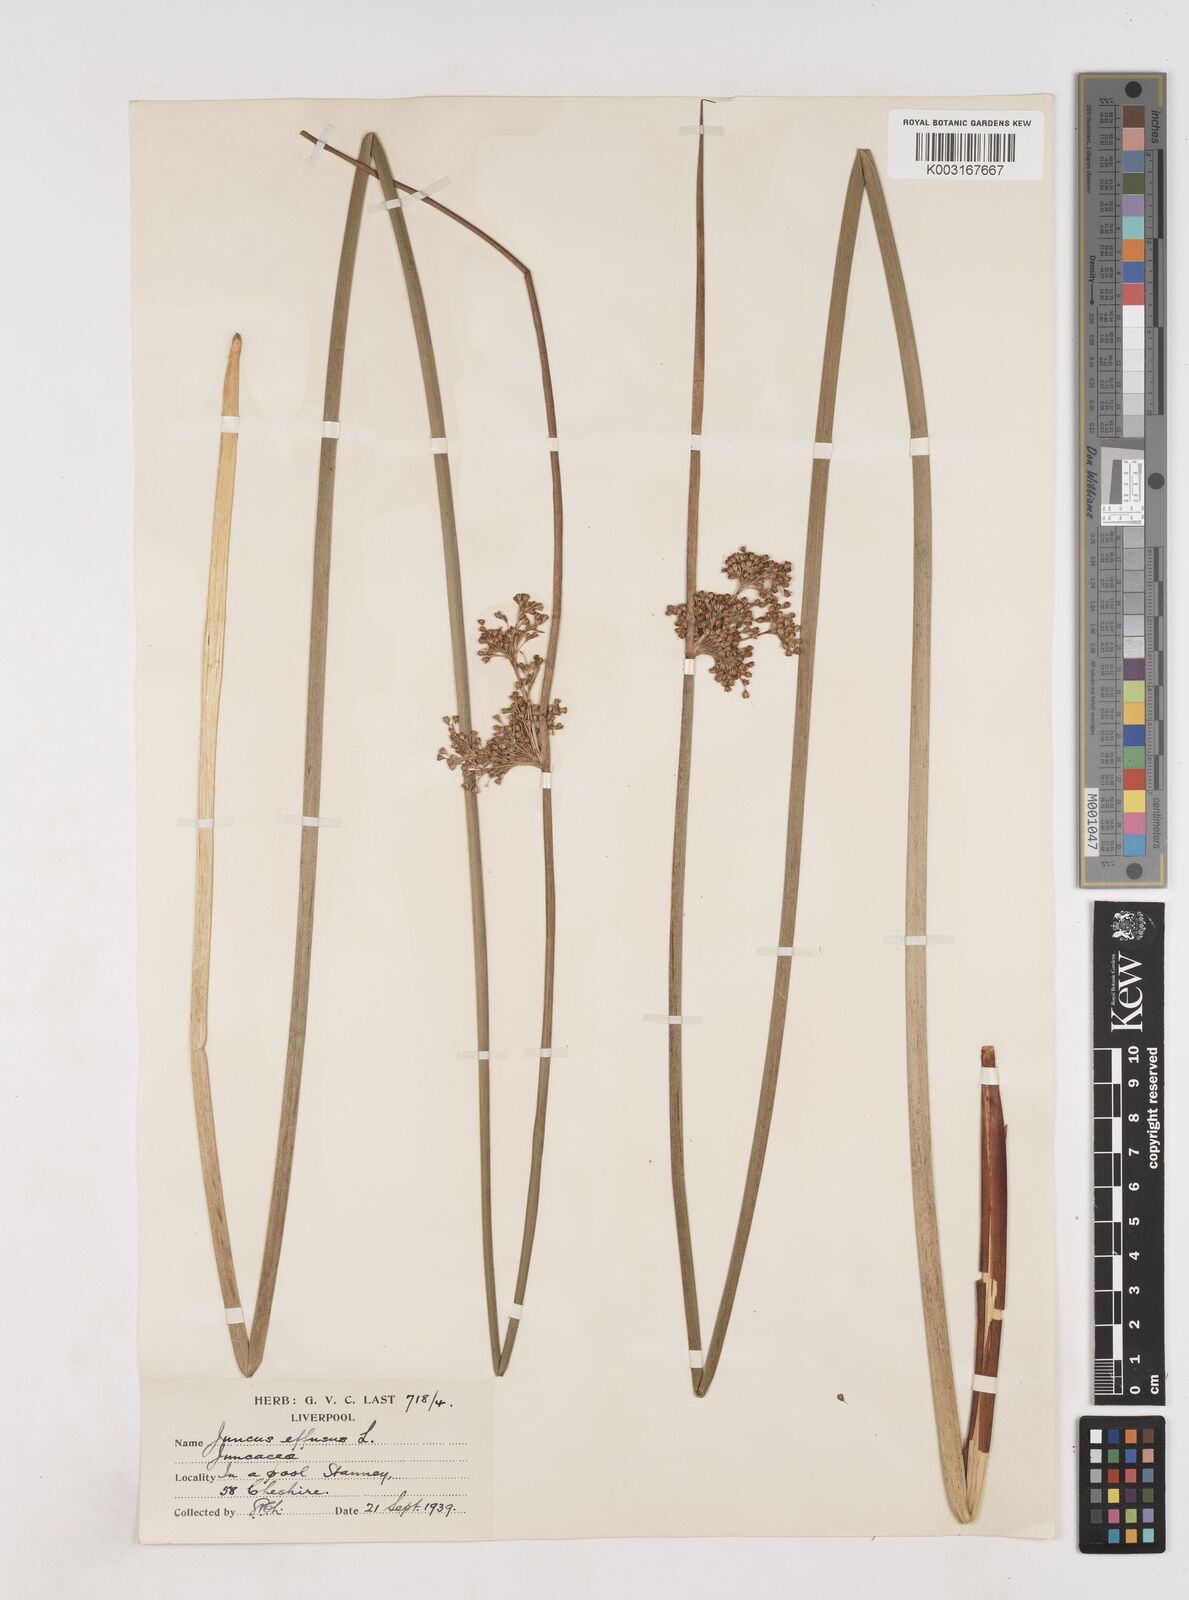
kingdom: Plantae
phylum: Tracheophyta
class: Liliopsida
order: Poales
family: Juncaceae
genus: Juncus
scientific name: Juncus effusus
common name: Soft rush
